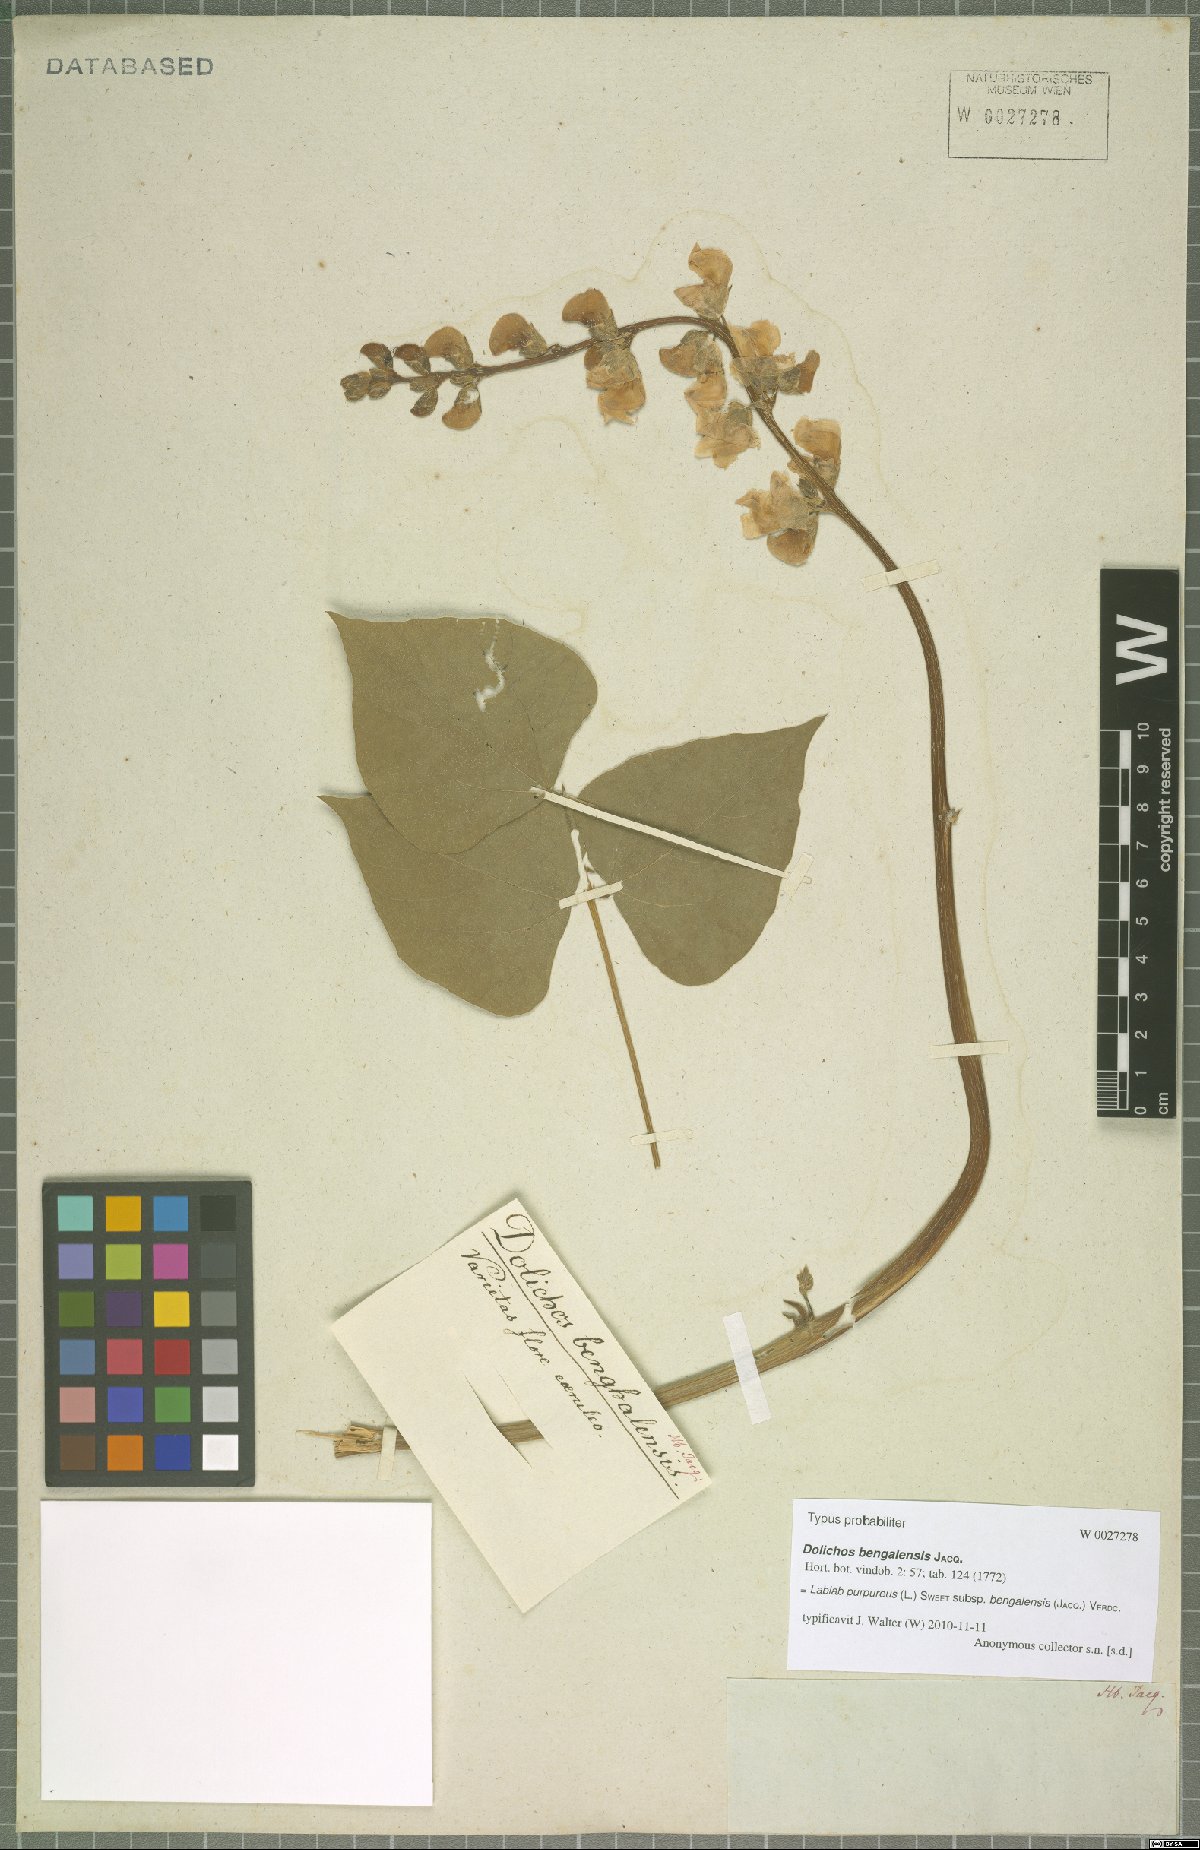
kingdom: Plantae
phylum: Tracheophyta
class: Magnoliopsida
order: Fabales
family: Fabaceae
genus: Lablab
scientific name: Lablab purpureus
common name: Lablab-bean
